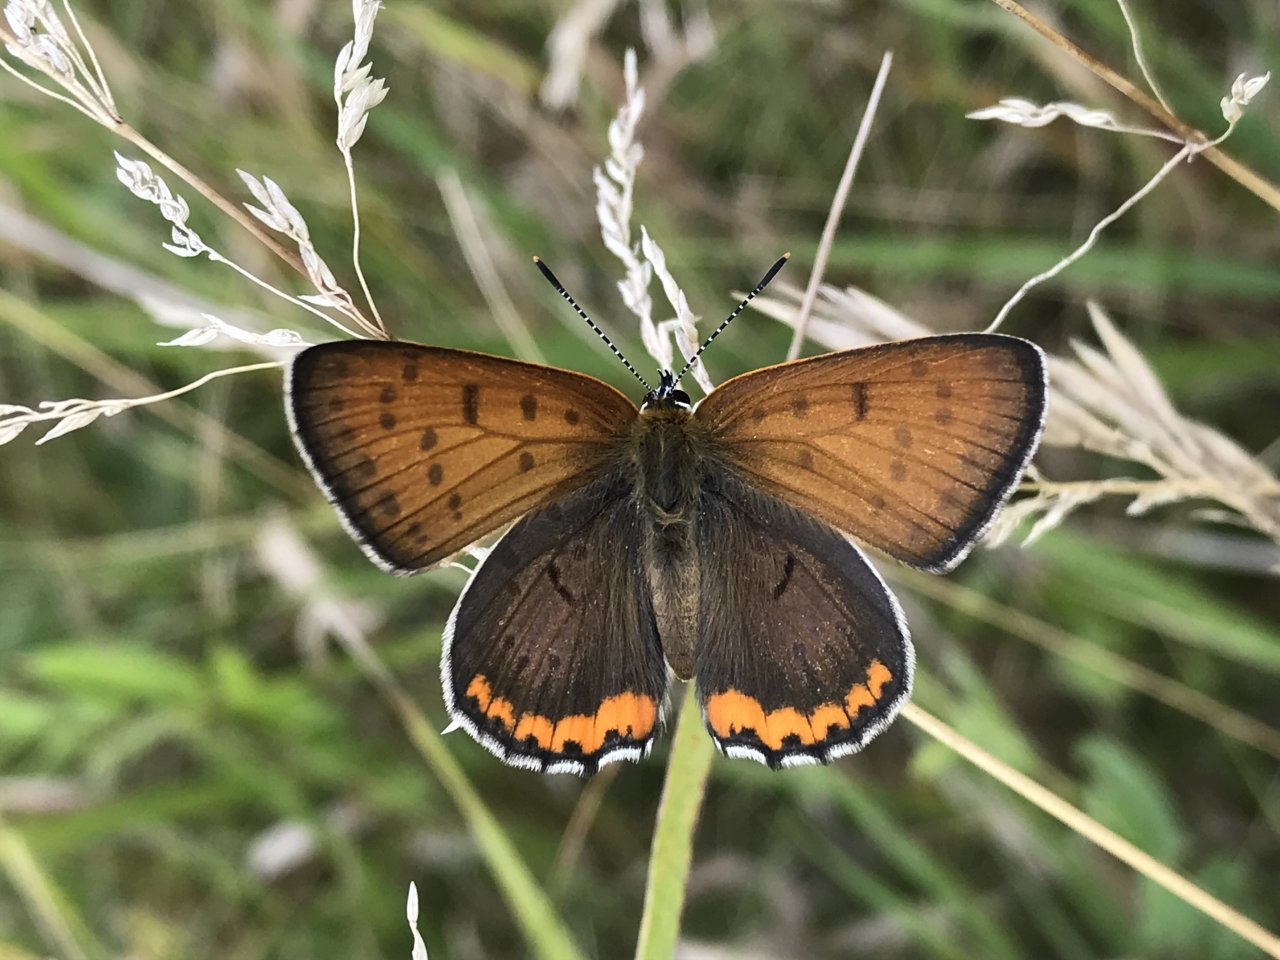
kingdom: Animalia
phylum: Arthropoda
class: Insecta
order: Lepidoptera
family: Sesiidae
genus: Sesia
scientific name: Sesia Lycaena hyllus
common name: Bronze Copper
